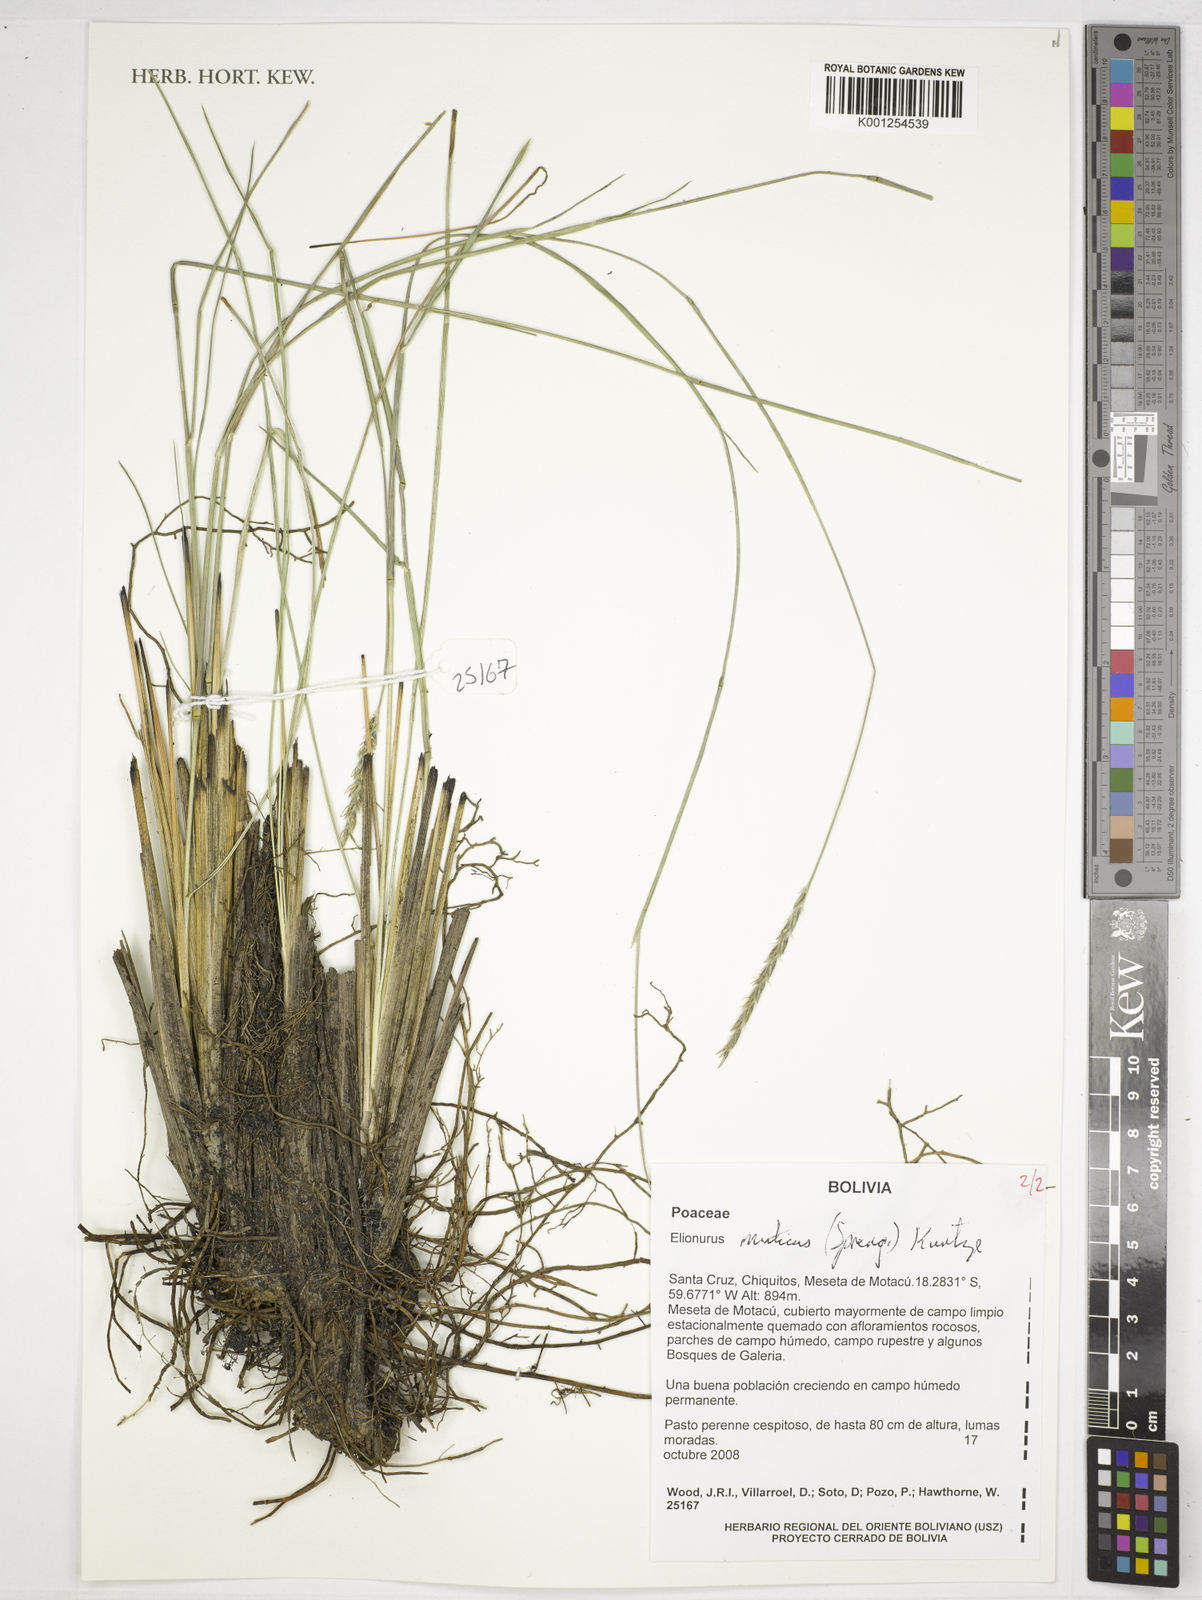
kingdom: Plantae
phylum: Tracheophyta
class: Liliopsida
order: Poales
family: Poaceae
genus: Elionurus
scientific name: Elionurus muticus
